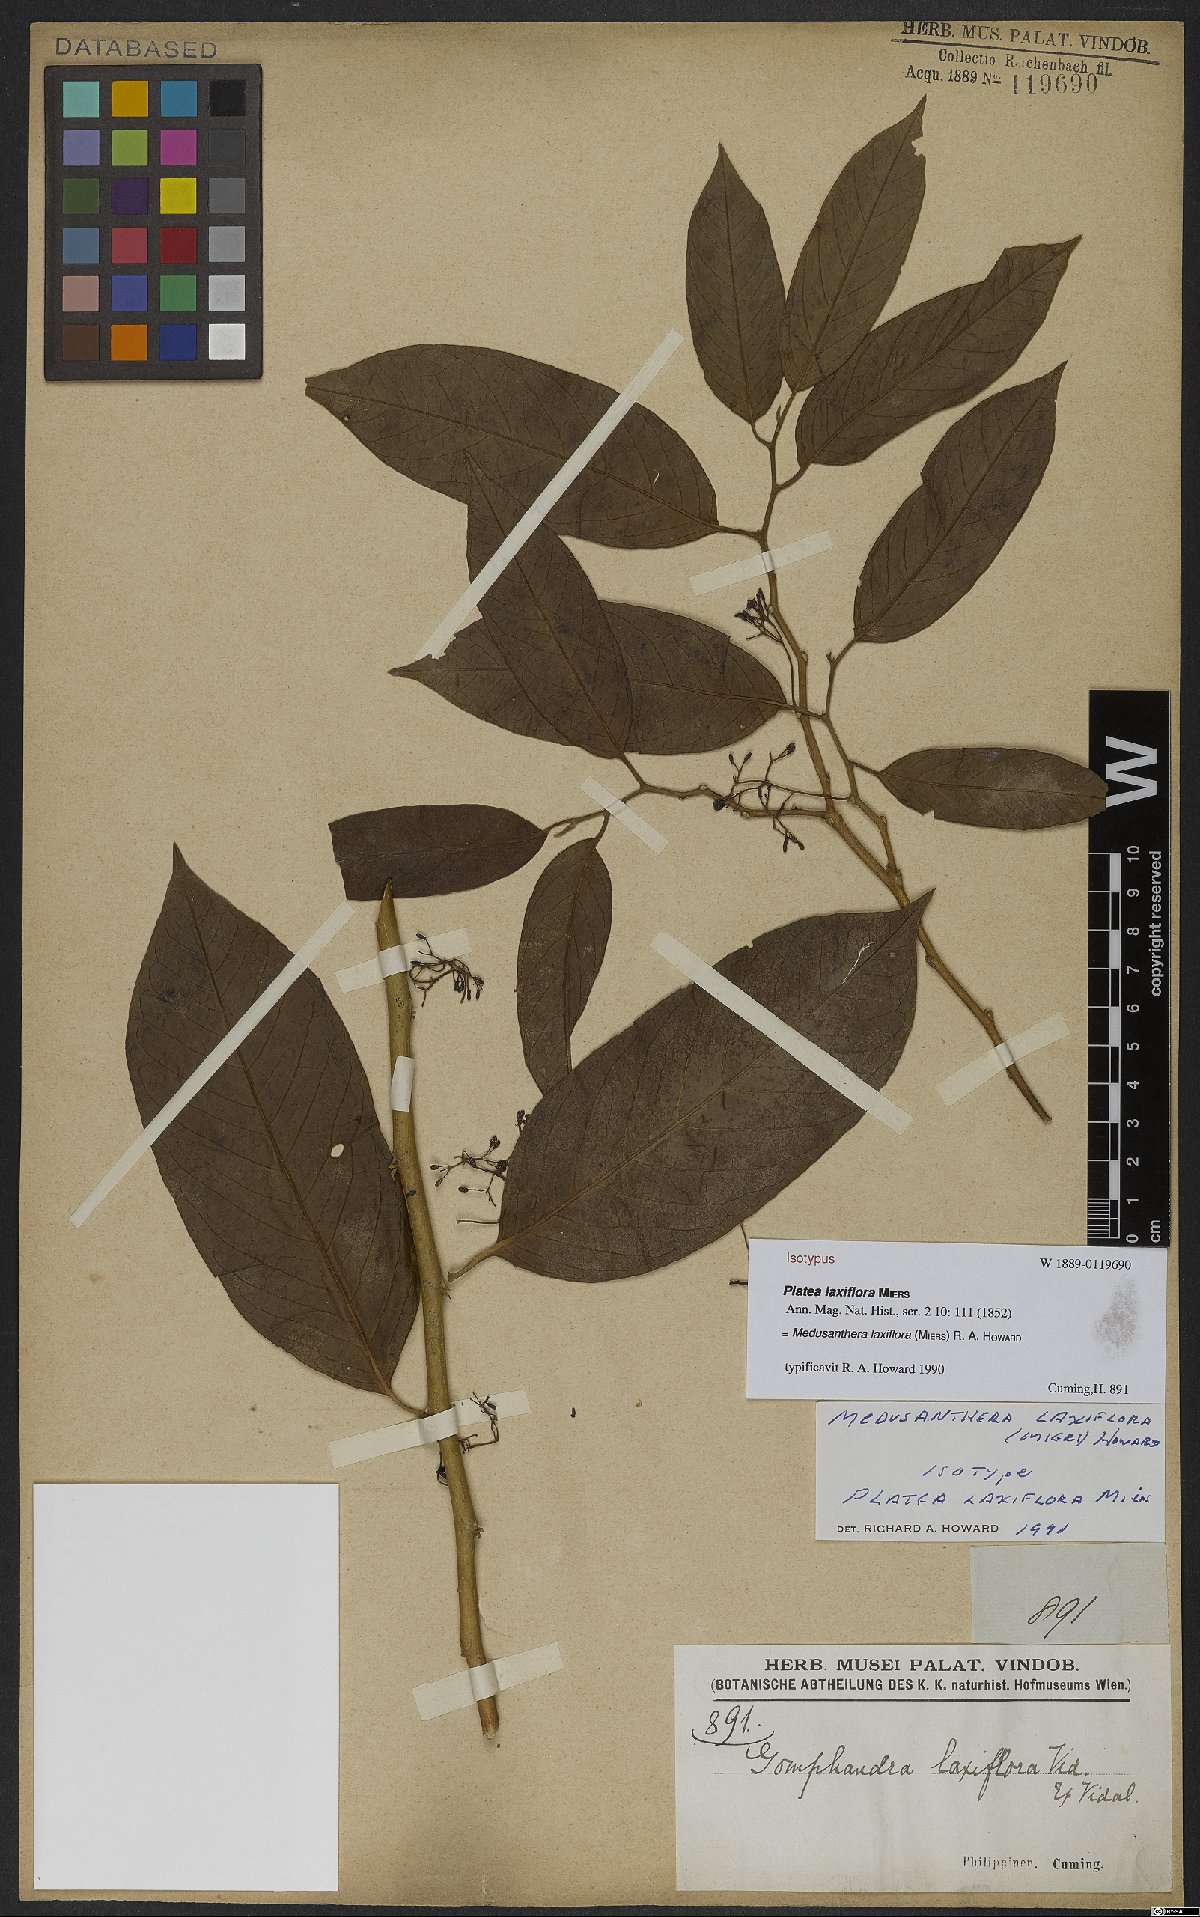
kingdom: Plantae
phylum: Tracheophyta
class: Magnoliopsida
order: Cardiopteridales
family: Stemonuraceae
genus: Medusanthera
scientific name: Medusanthera laxiflora
